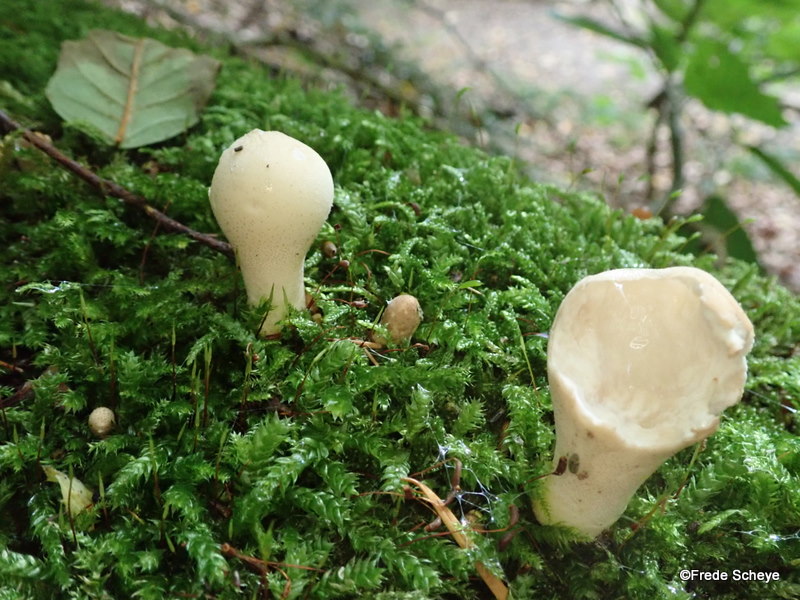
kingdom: Fungi
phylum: Basidiomycota
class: Agaricomycetes
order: Agaricales
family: Lycoperdaceae
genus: Apioperdon
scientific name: Apioperdon pyriforme
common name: pære-støvbold
